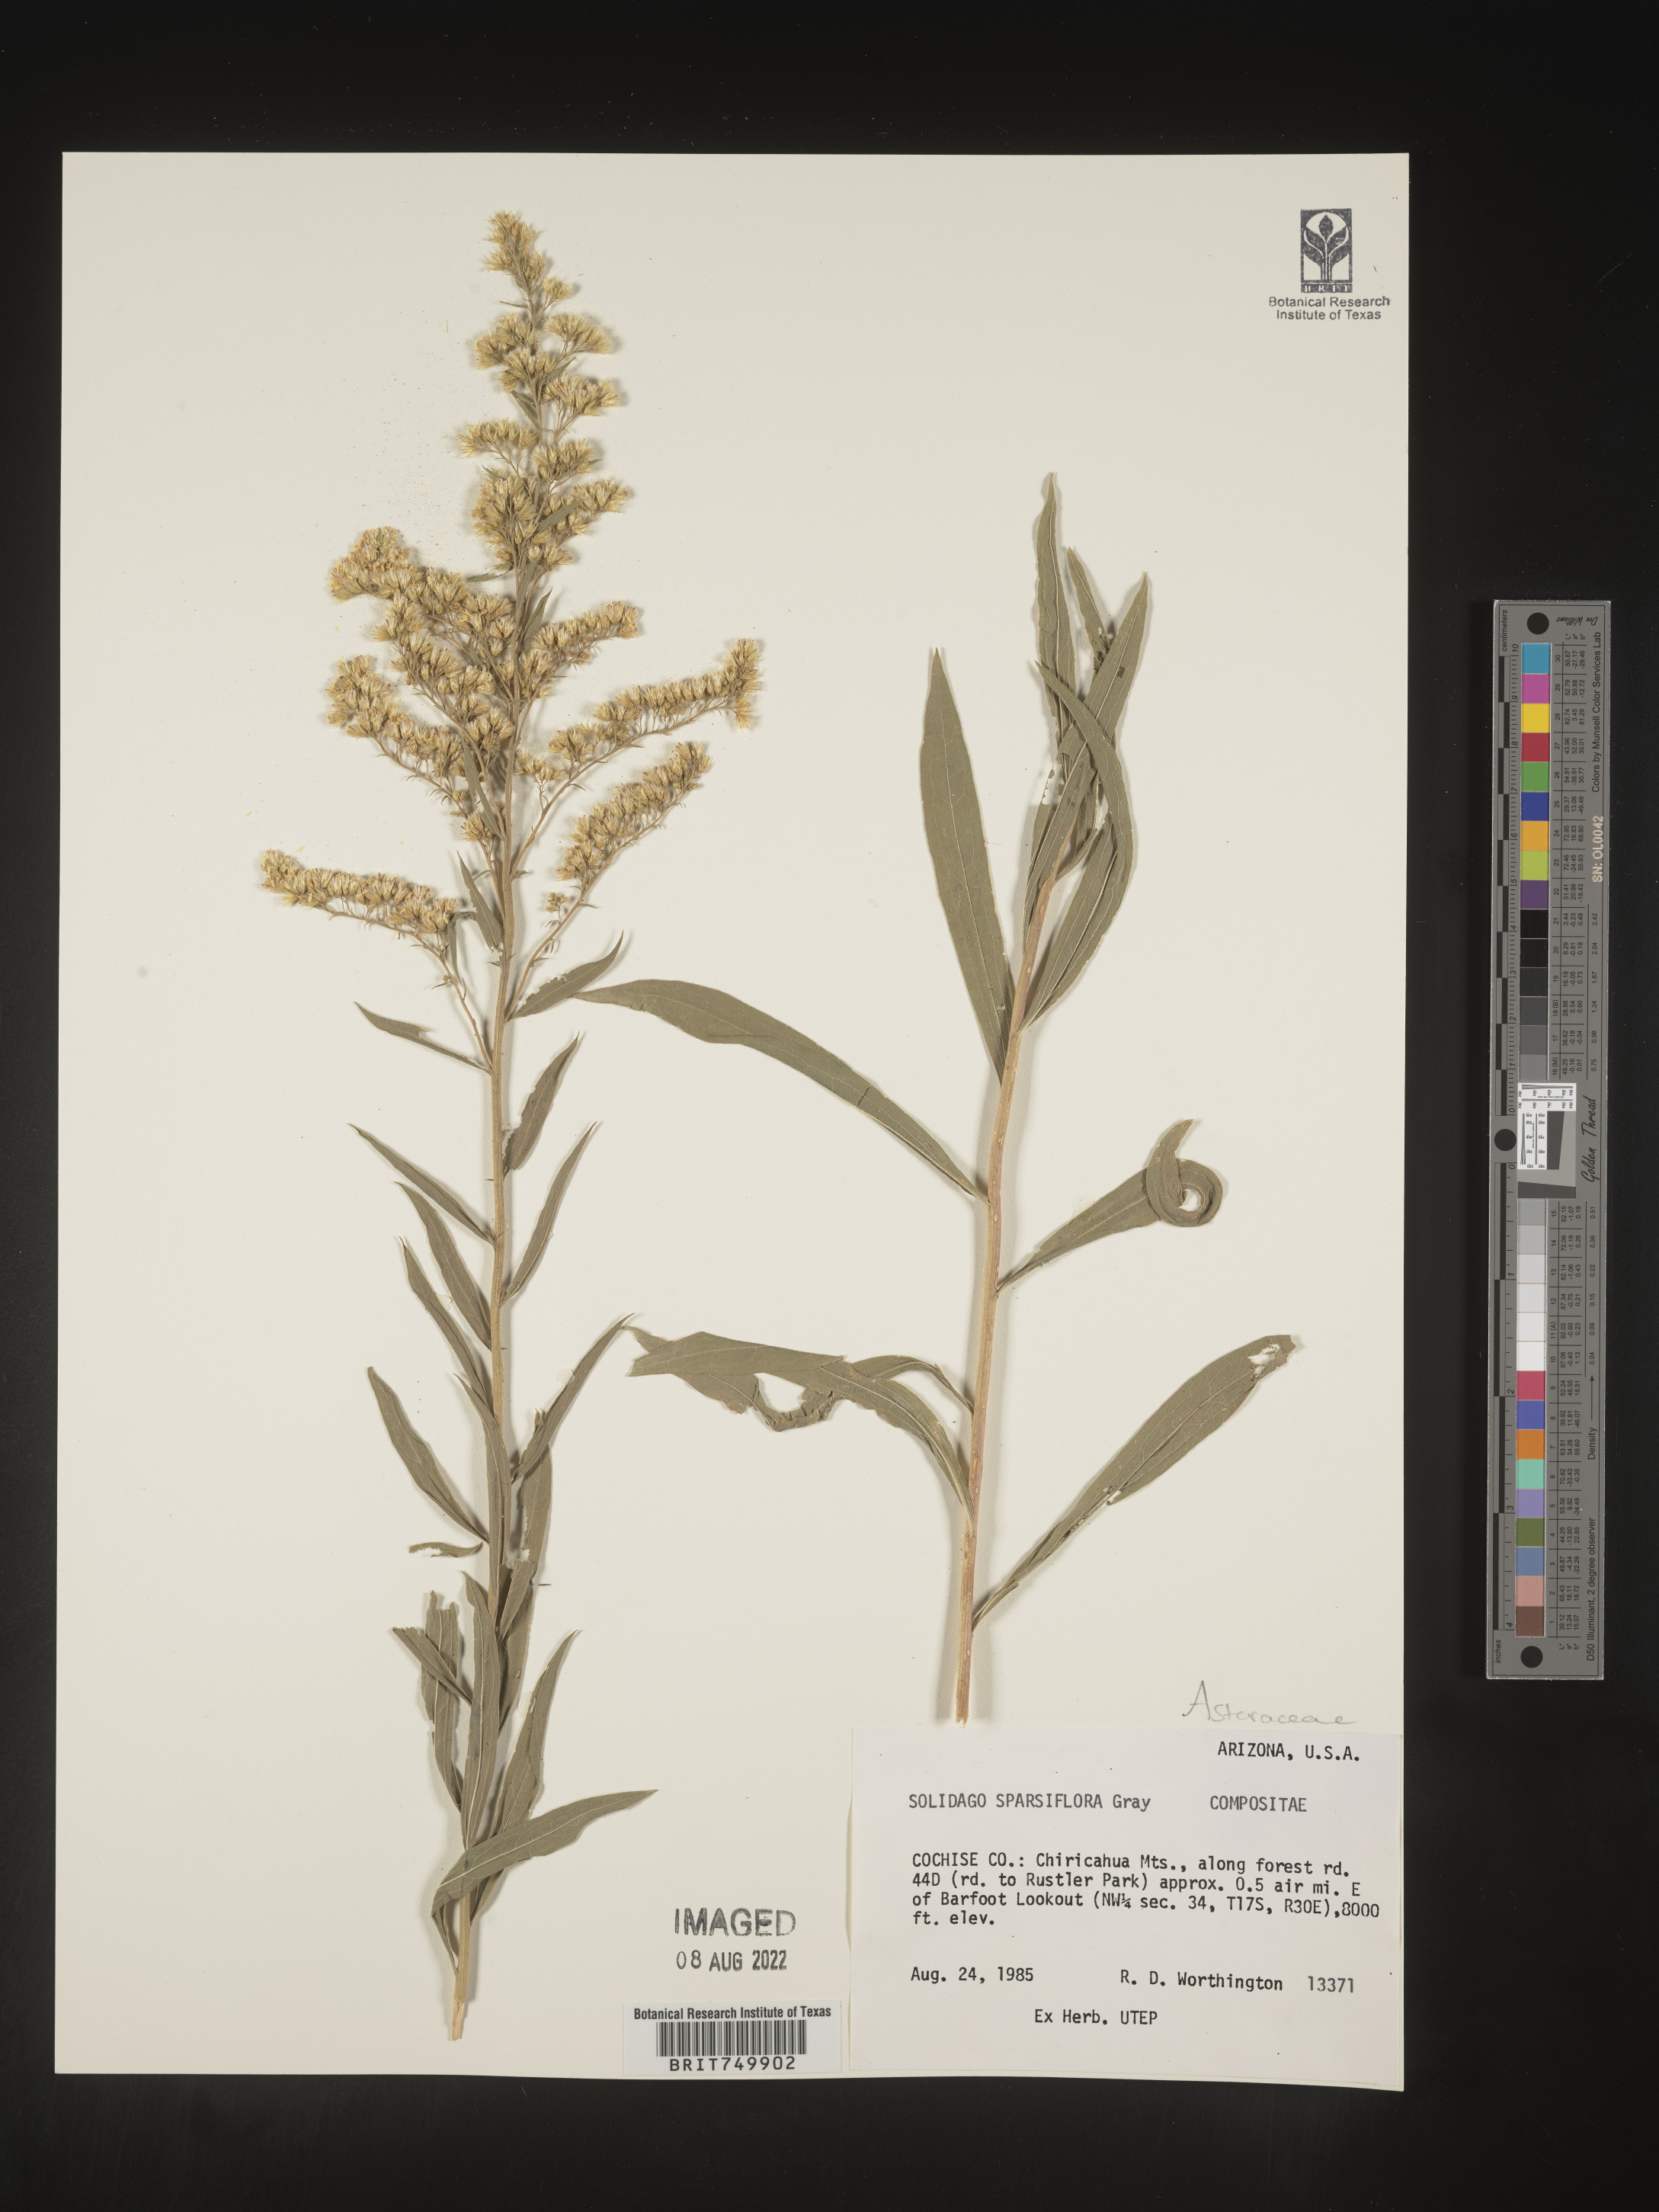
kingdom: Plantae
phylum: Tracheophyta
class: Magnoliopsida
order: Asterales
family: Asteraceae
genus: Solidago
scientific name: Solidago velutina
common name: Three-nerve goldenrod
